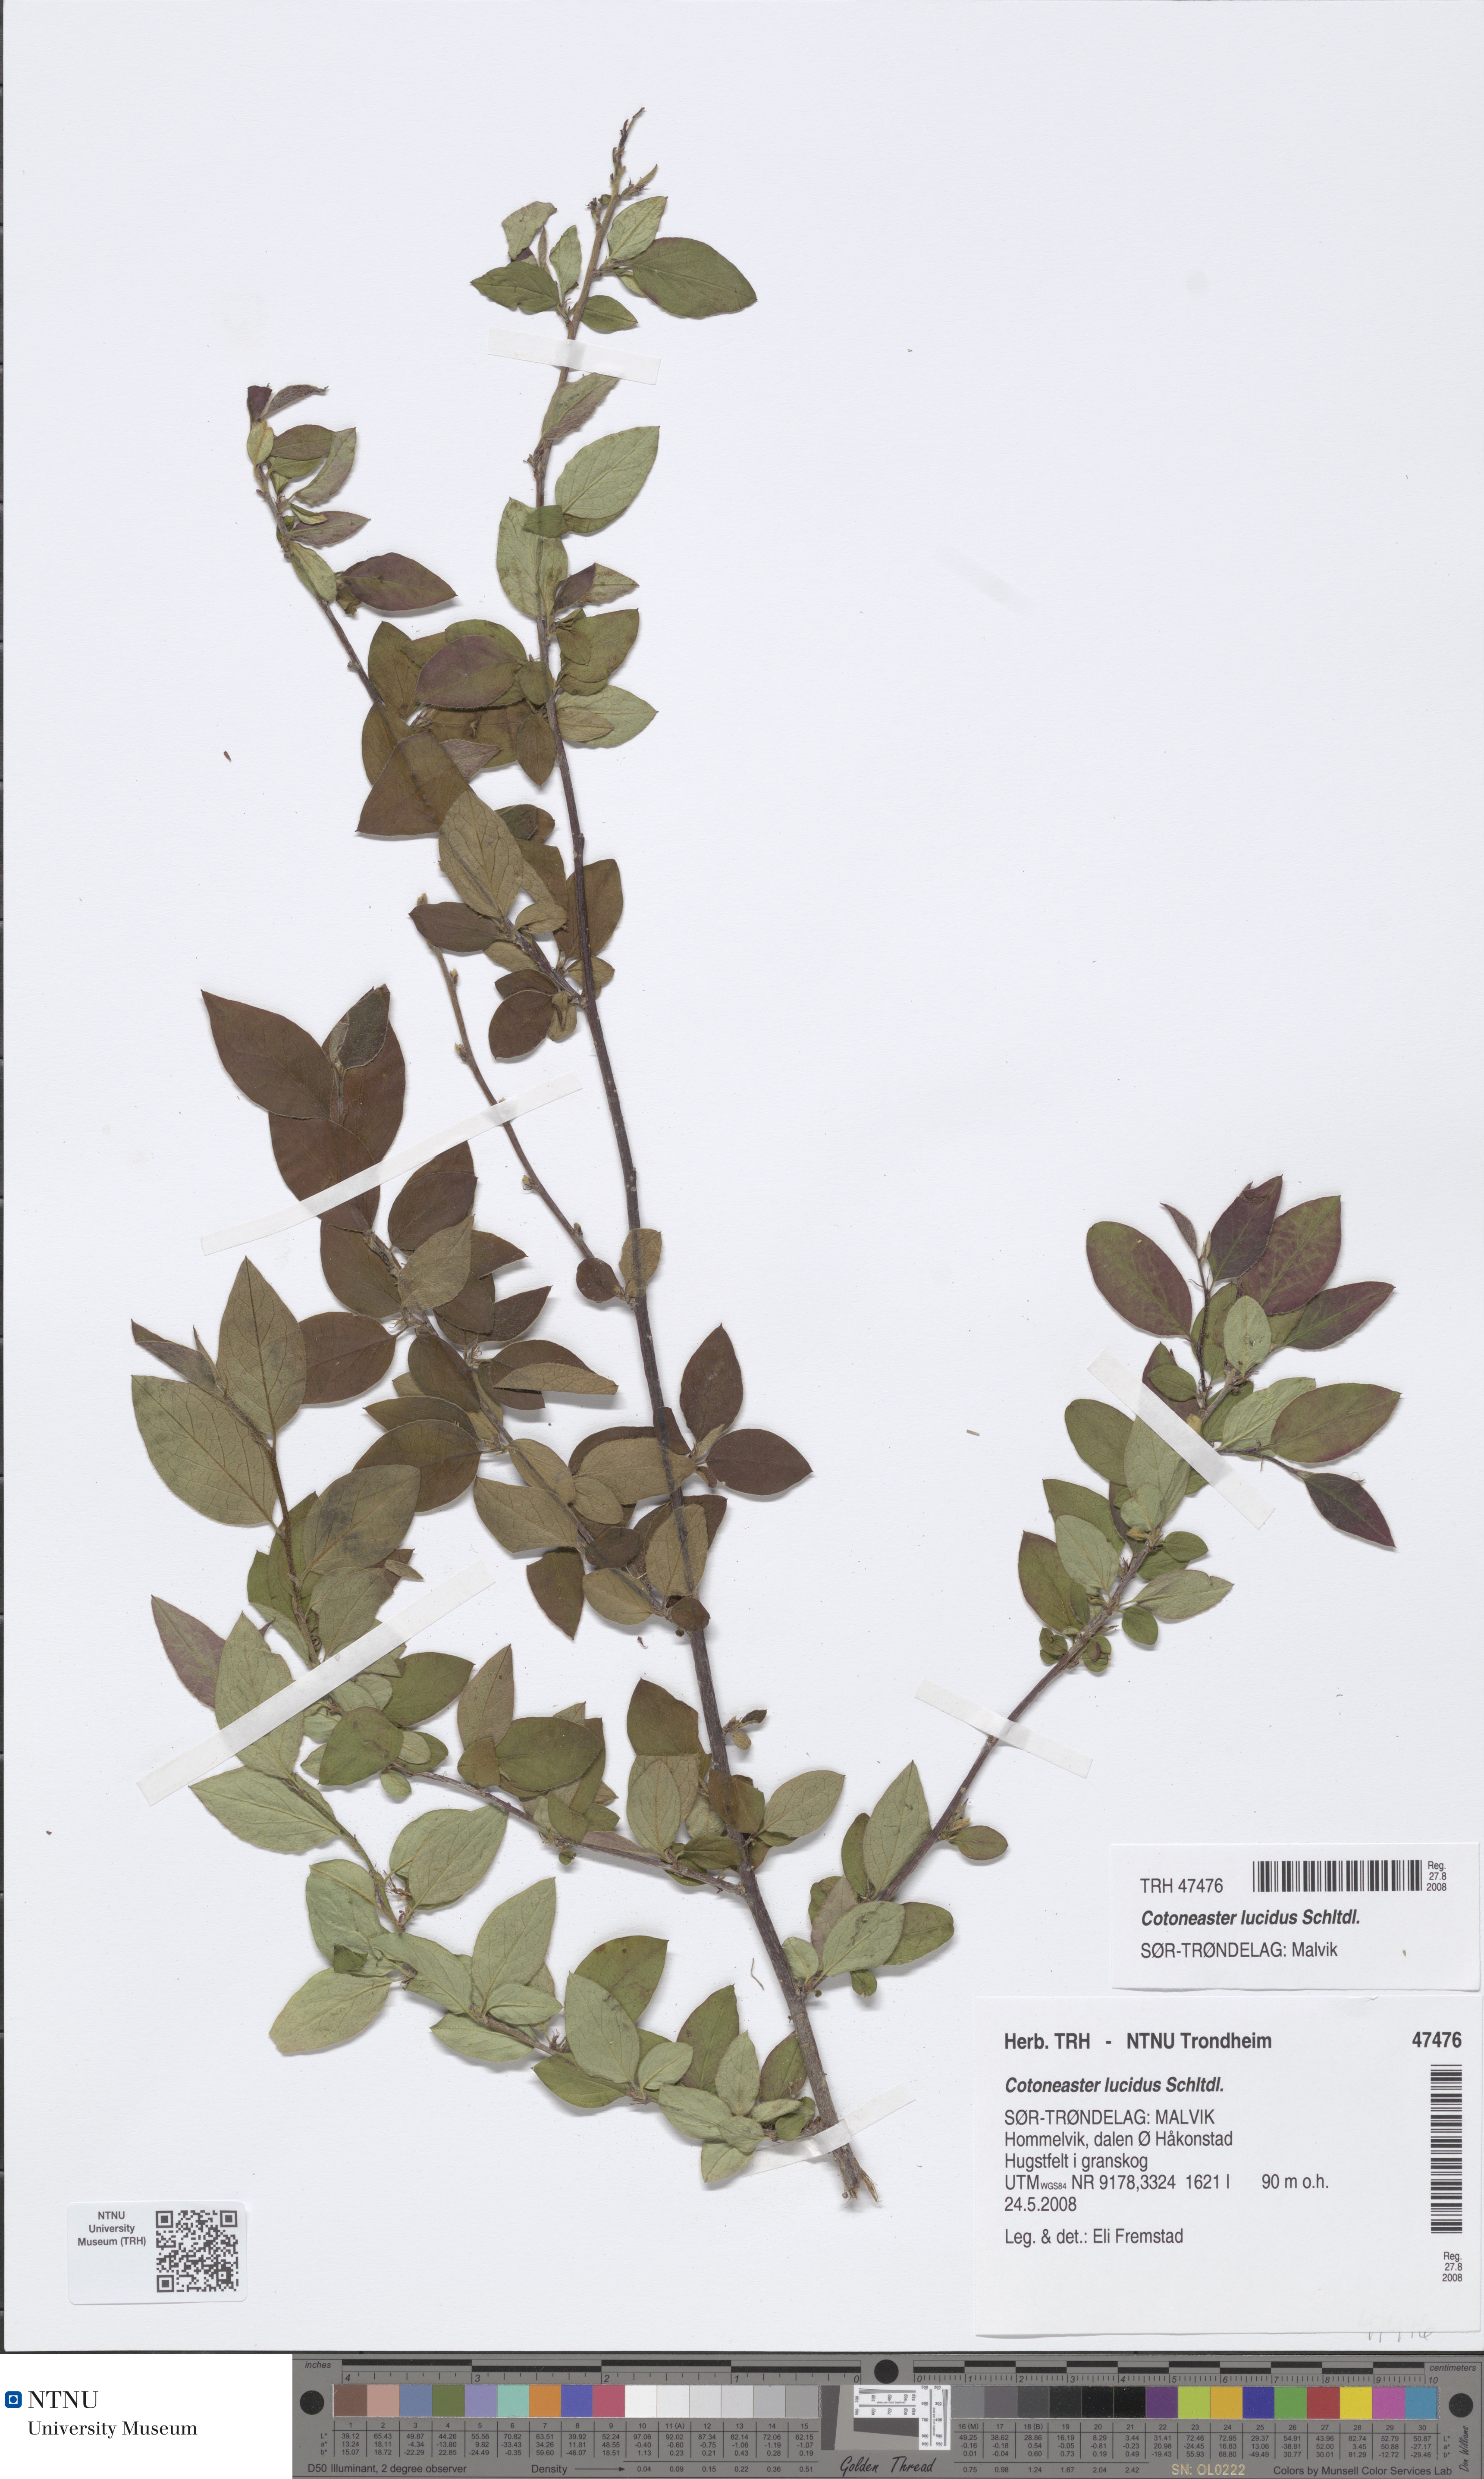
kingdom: Plantae
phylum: Tracheophyta
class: Magnoliopsida
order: Rosales
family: Rosaceae
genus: Cotoneaster
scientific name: Cotoneaster acutifolius
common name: Peking cotoneaster
